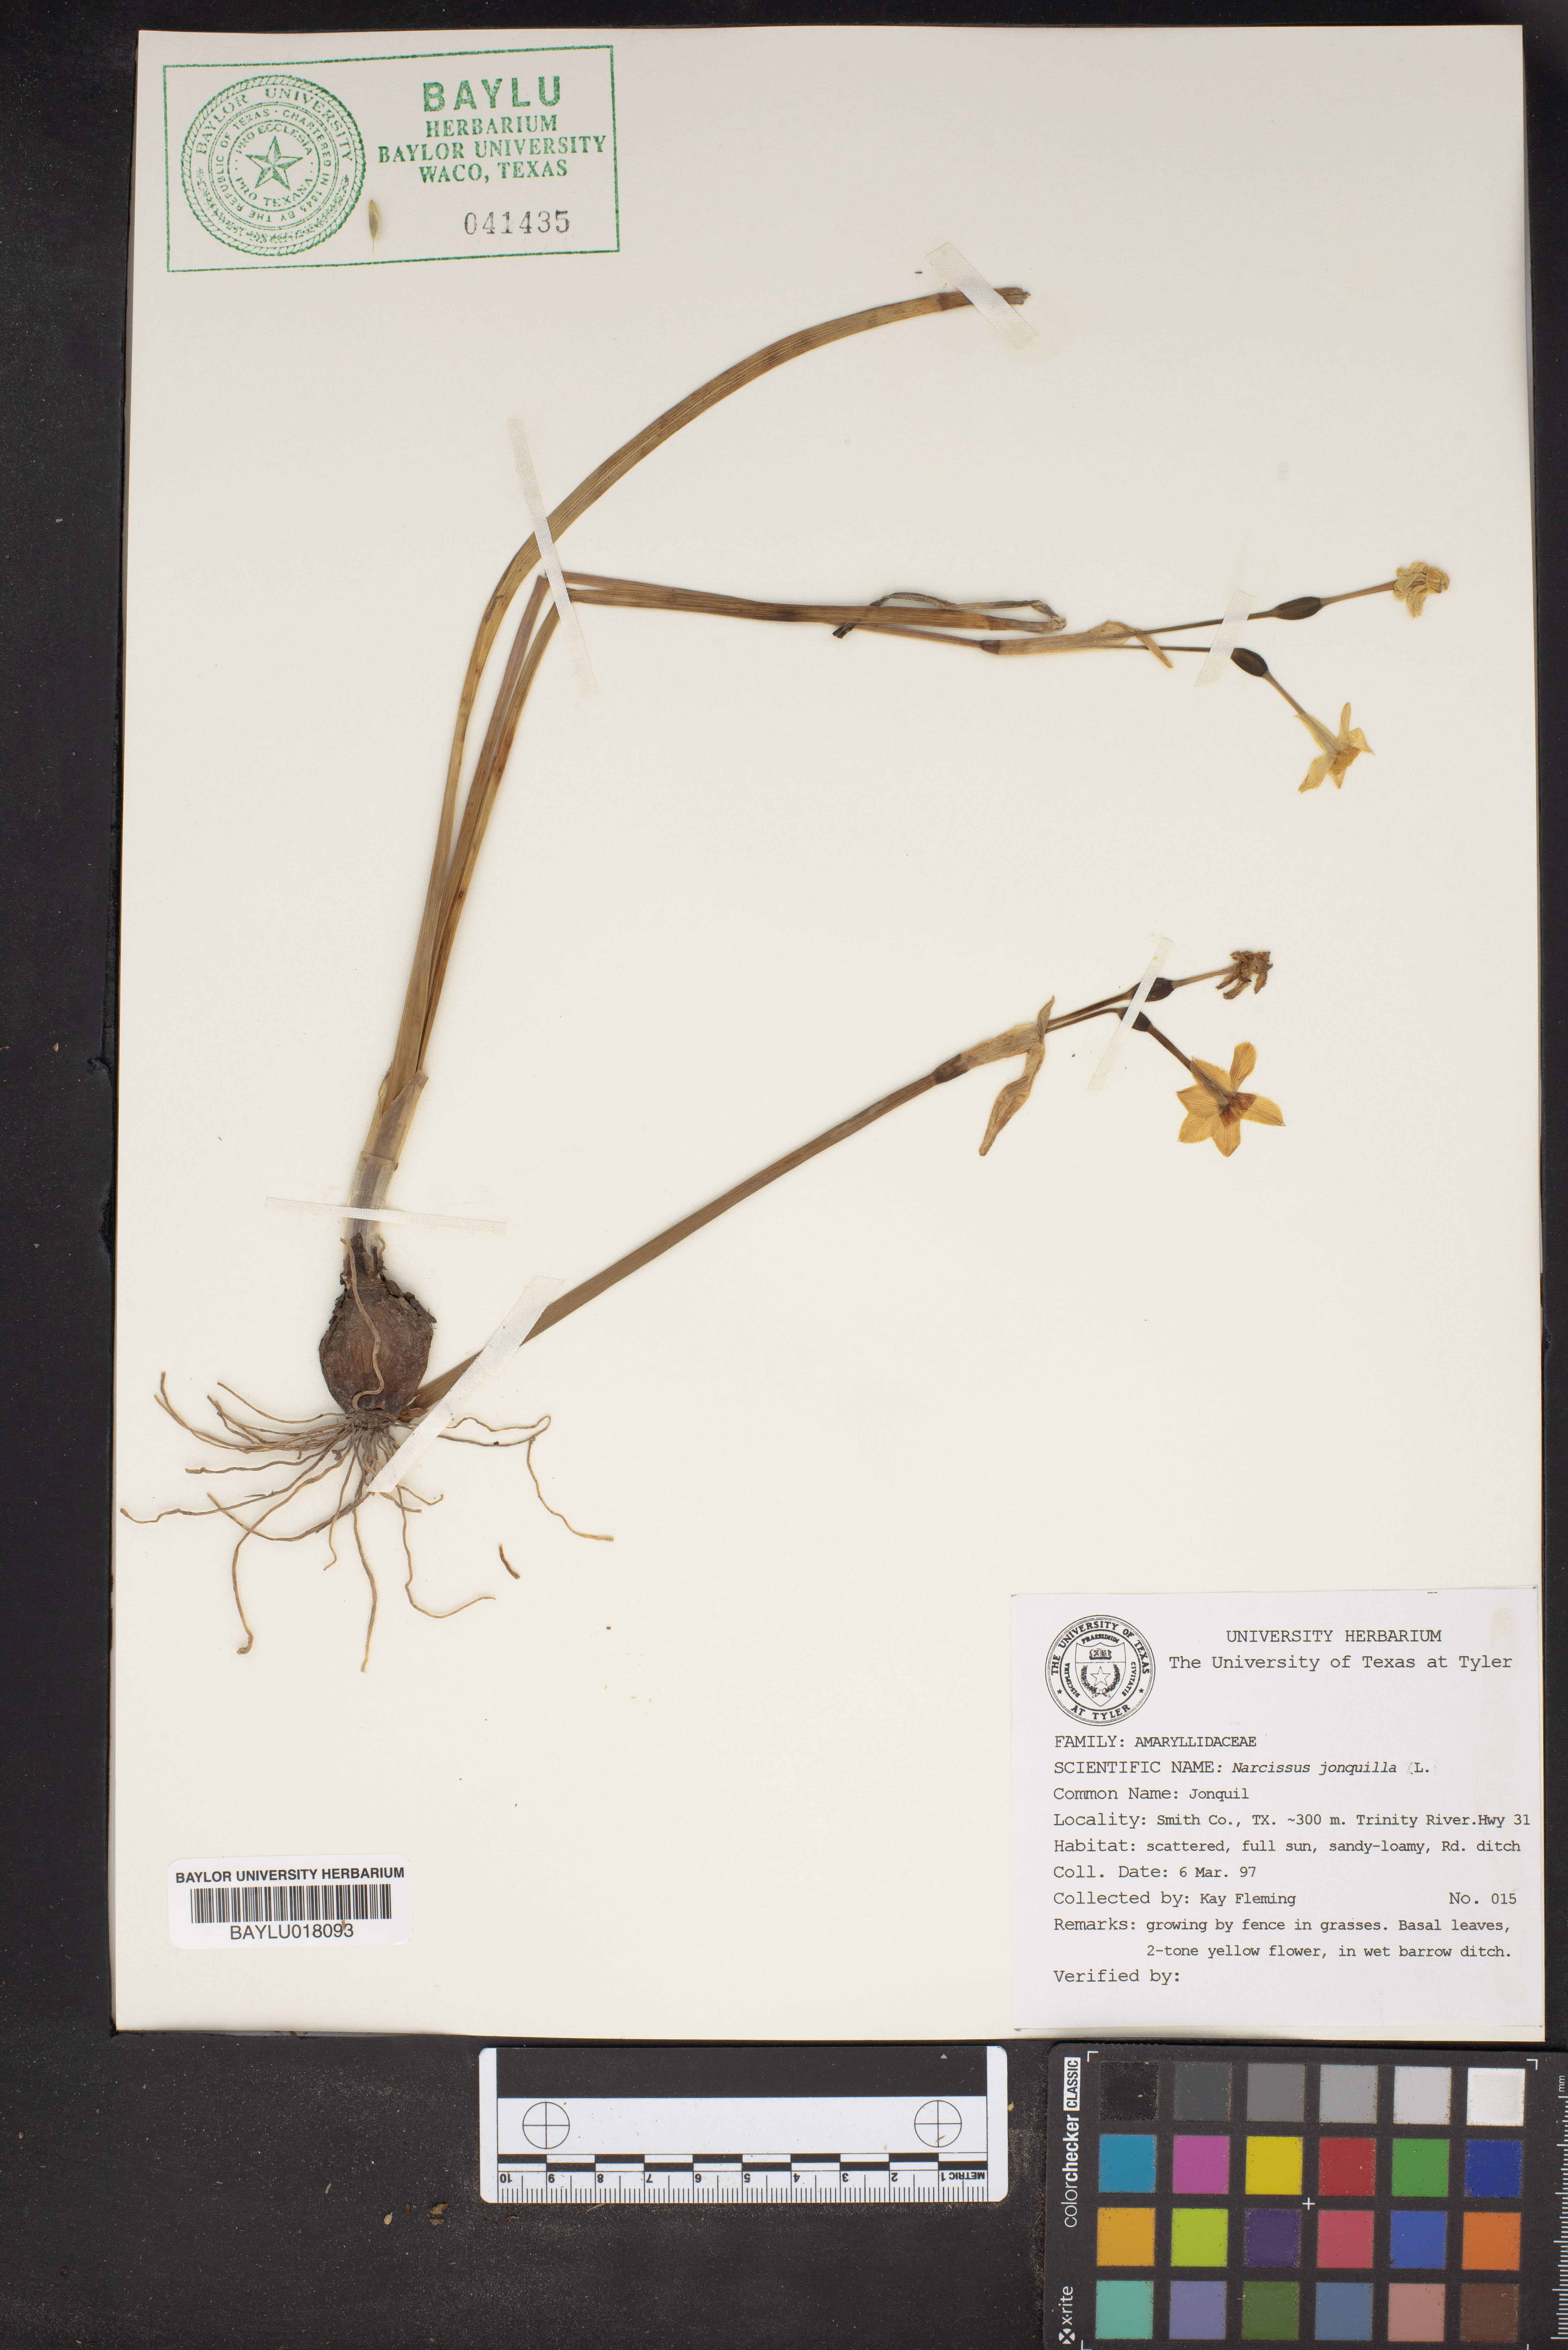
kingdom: Plantae
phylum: Tracheophyta
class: Liliopsida
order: Asparagales
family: Amaryllidaceae
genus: Narcissus
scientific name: Narcissus jonquilla
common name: Jonquil
